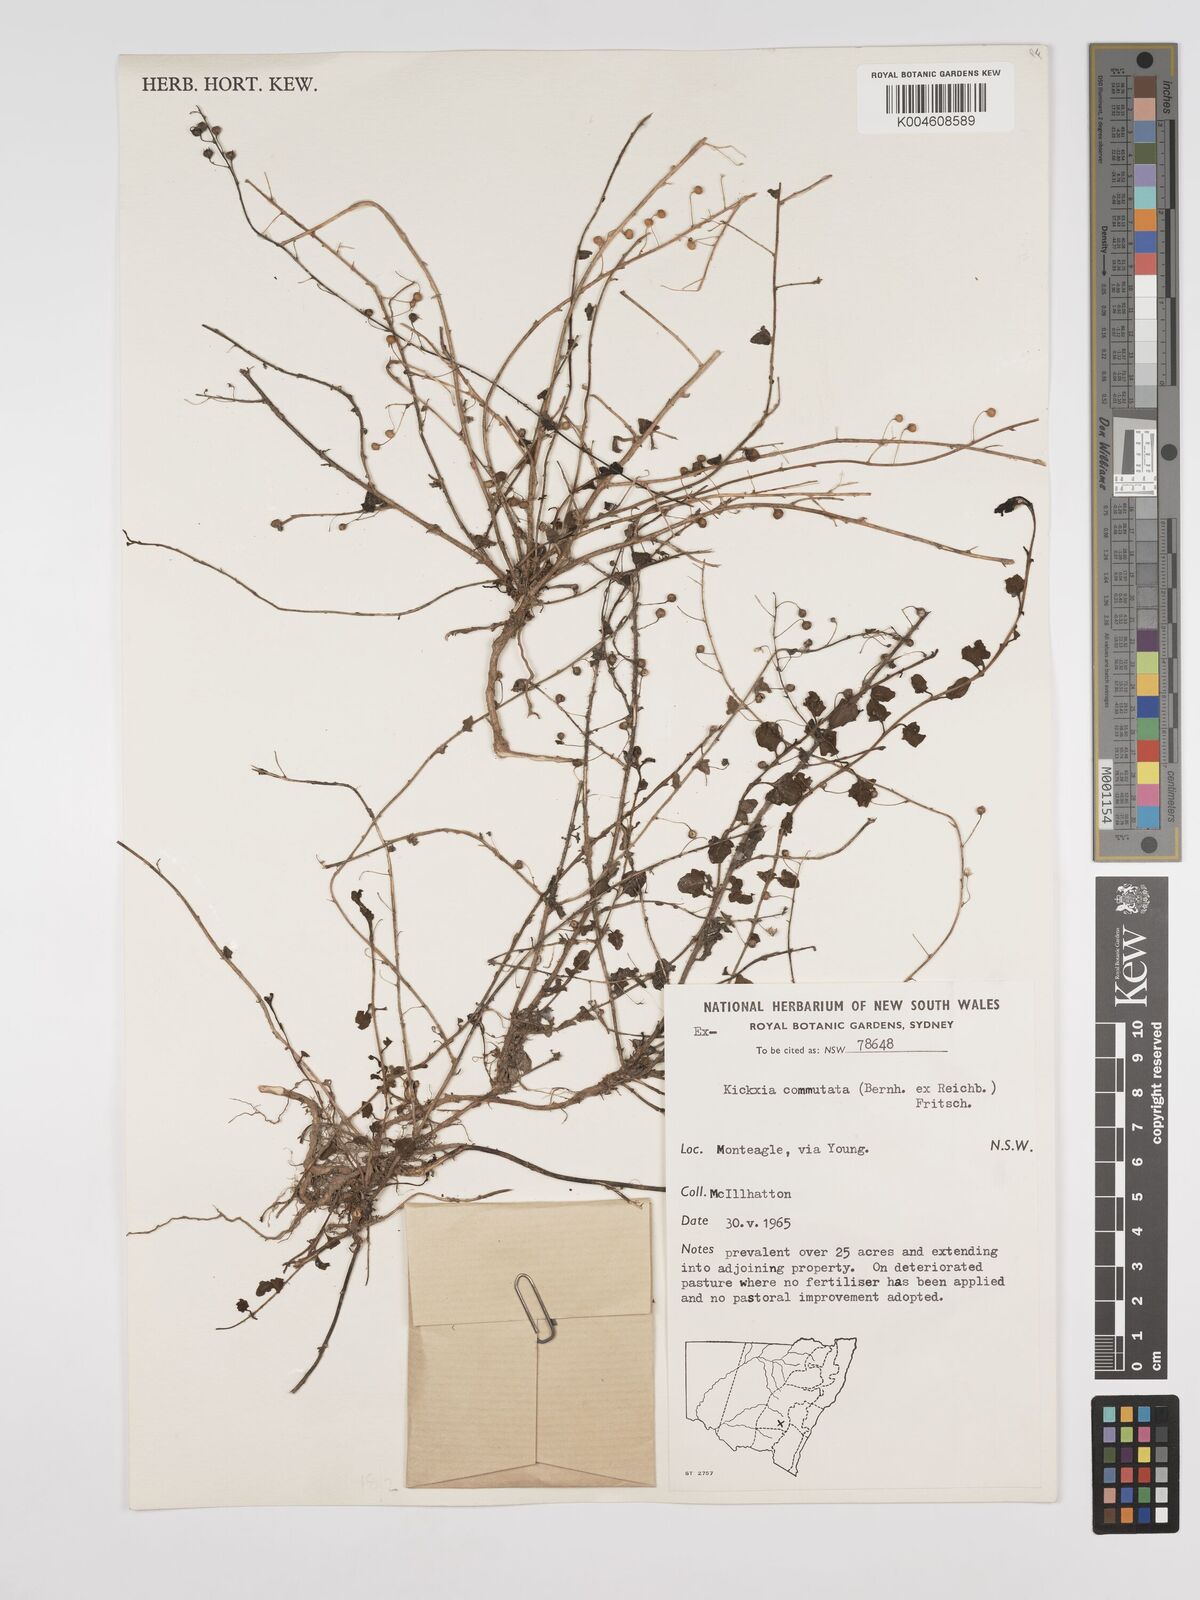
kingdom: Plantae
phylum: Tracheophyta
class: Magnoliopsida
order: Lamiales
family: Plantaginaceae
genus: Kickxia
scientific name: Kickxia commutata
